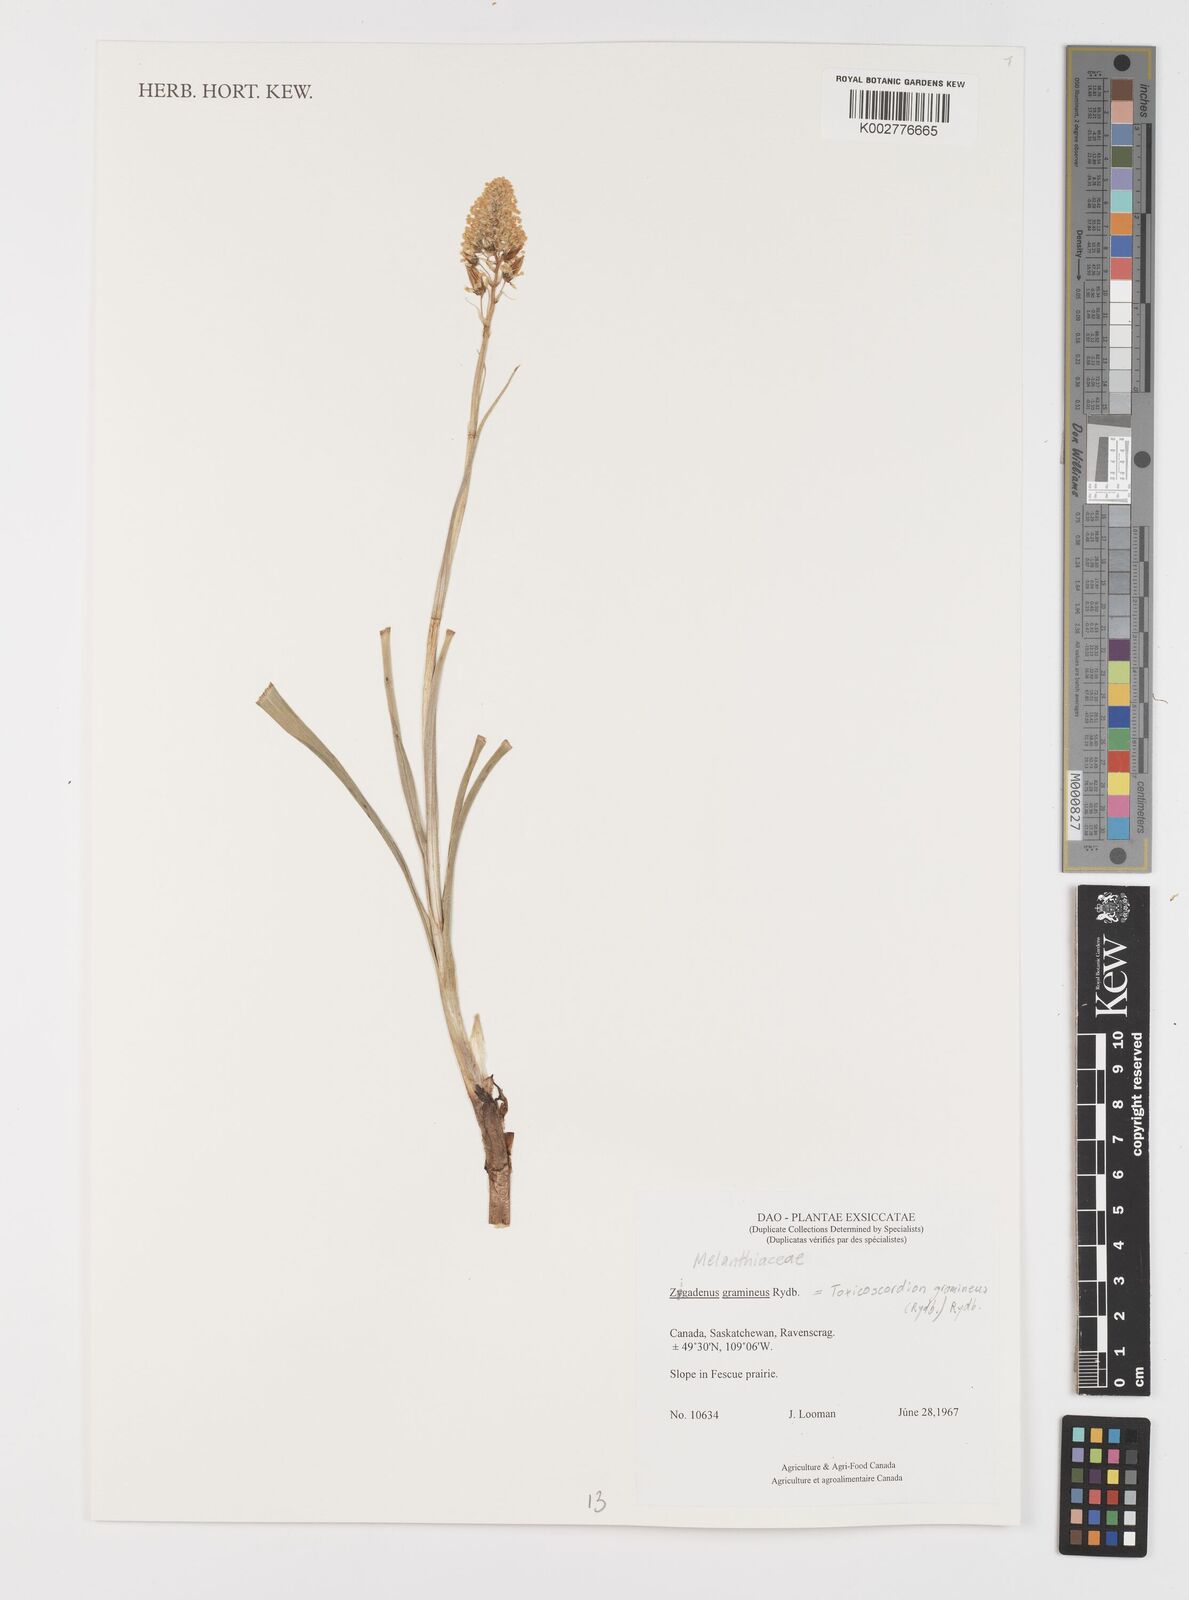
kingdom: Plantae
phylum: Tracheophyta
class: Liliopsida
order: Liliales
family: Melanthiaceae
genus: Toxicoscordion
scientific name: Toxicoscordion venenosum
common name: Meadow death camas
